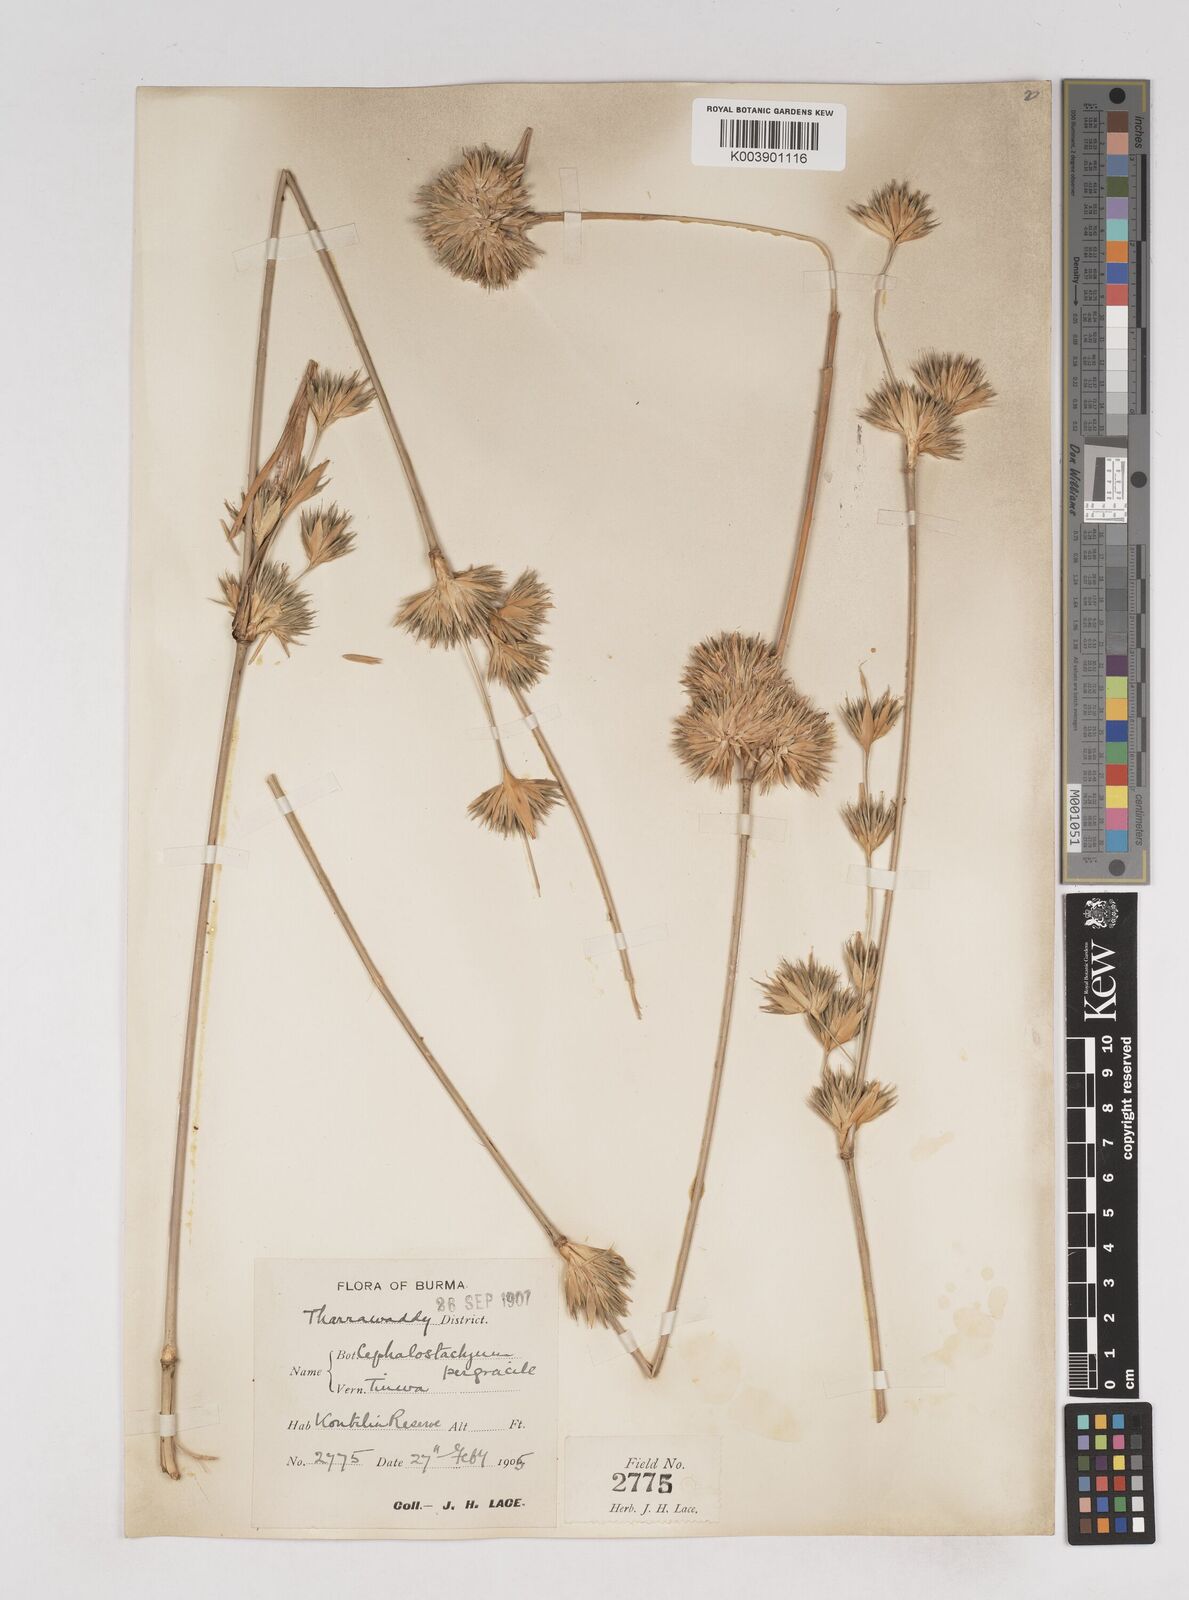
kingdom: Plantae
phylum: Tracheophyta
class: Liliopsida
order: Poales
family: Poaceae
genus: Schizostachyum
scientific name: Schizostachyum pergracile
